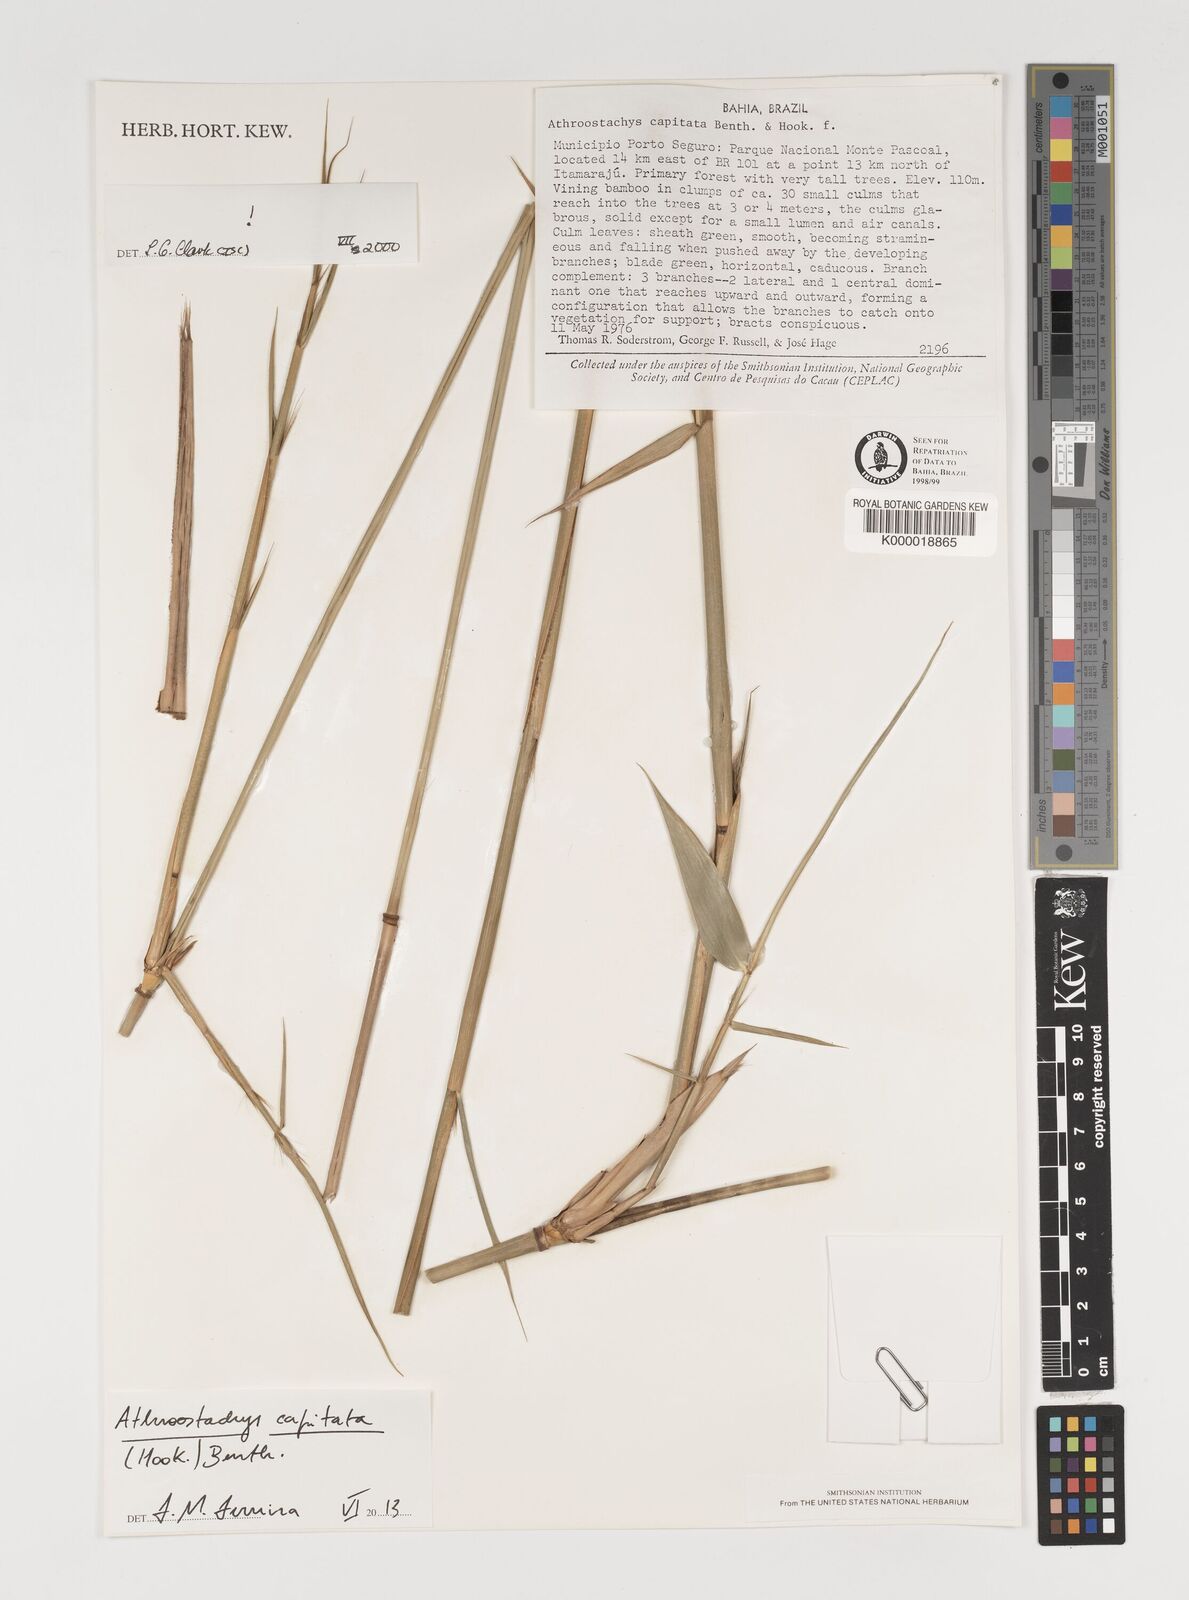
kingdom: Plantae
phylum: Tracheophyta
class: Liliopsida
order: Poales
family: Poaceae
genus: Athroostachys
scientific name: Athroostachys capitata
